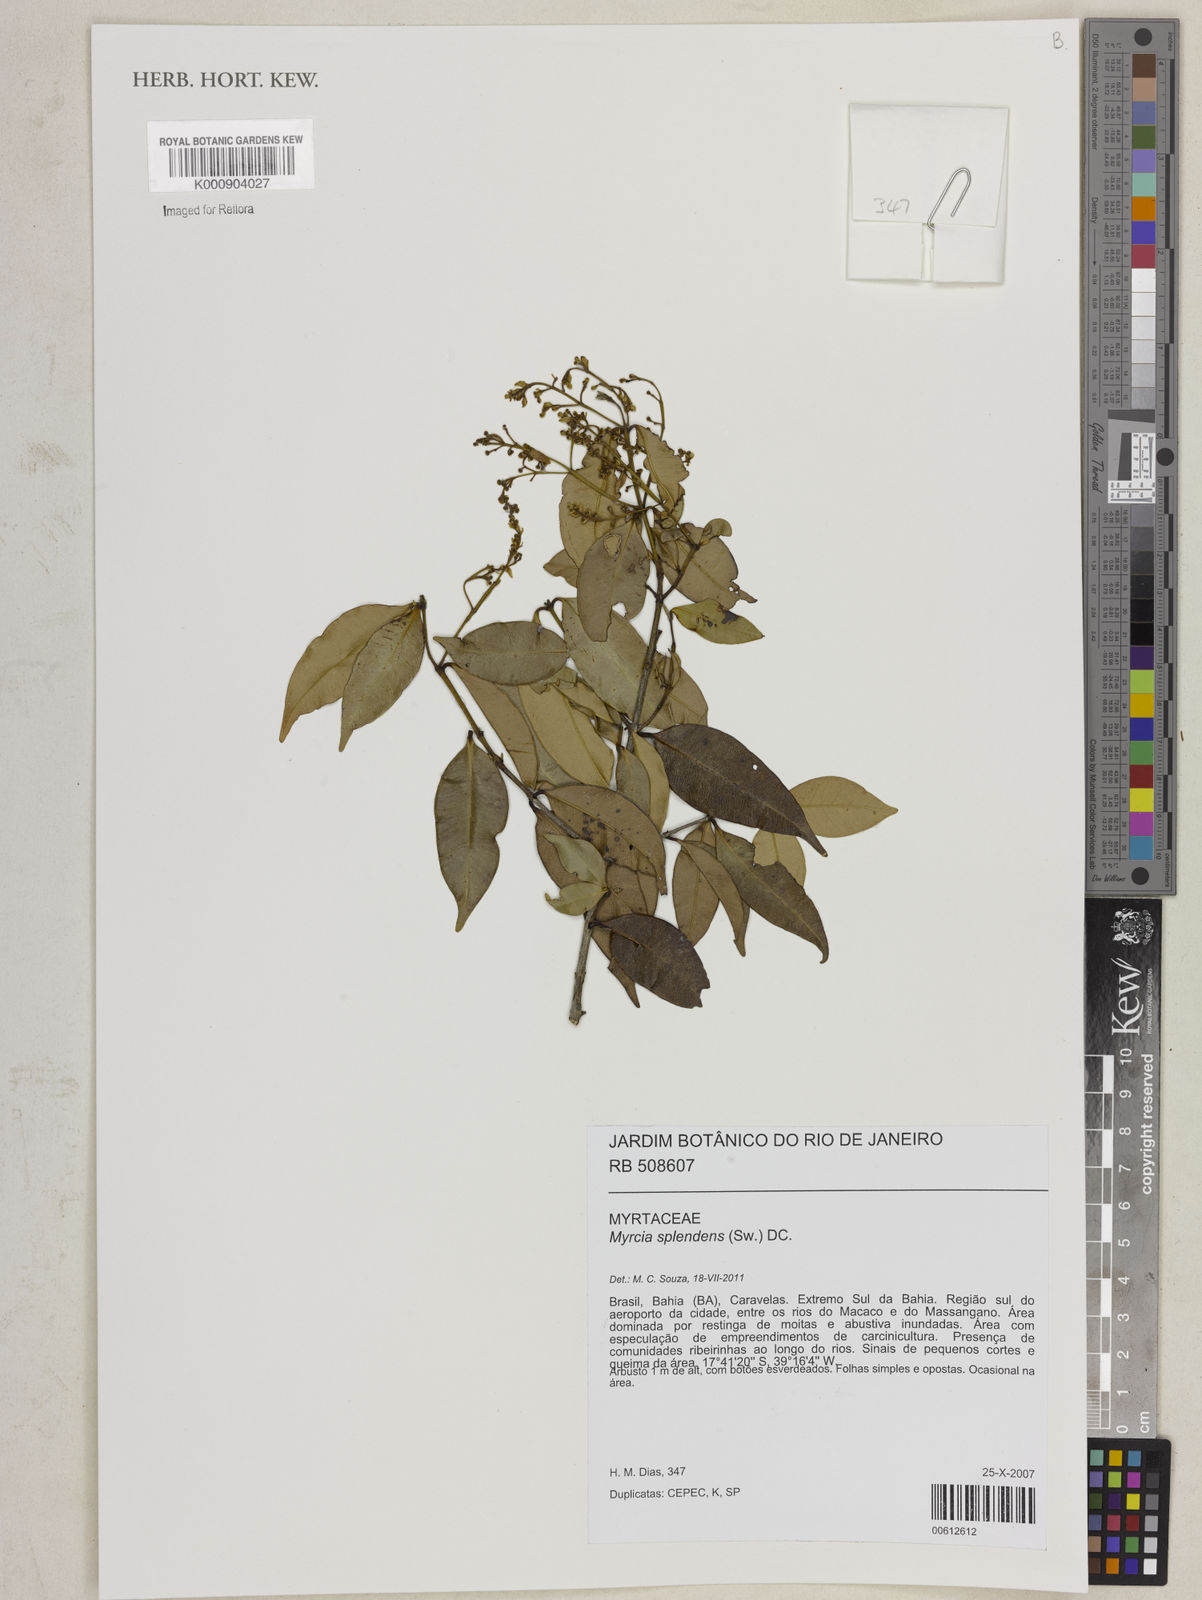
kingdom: Plantae
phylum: Tracheophyta
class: Magnoliopsida
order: Myrtales
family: Myrtaceae
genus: Myrcia
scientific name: Myrcia splendens
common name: Surinam cherry
